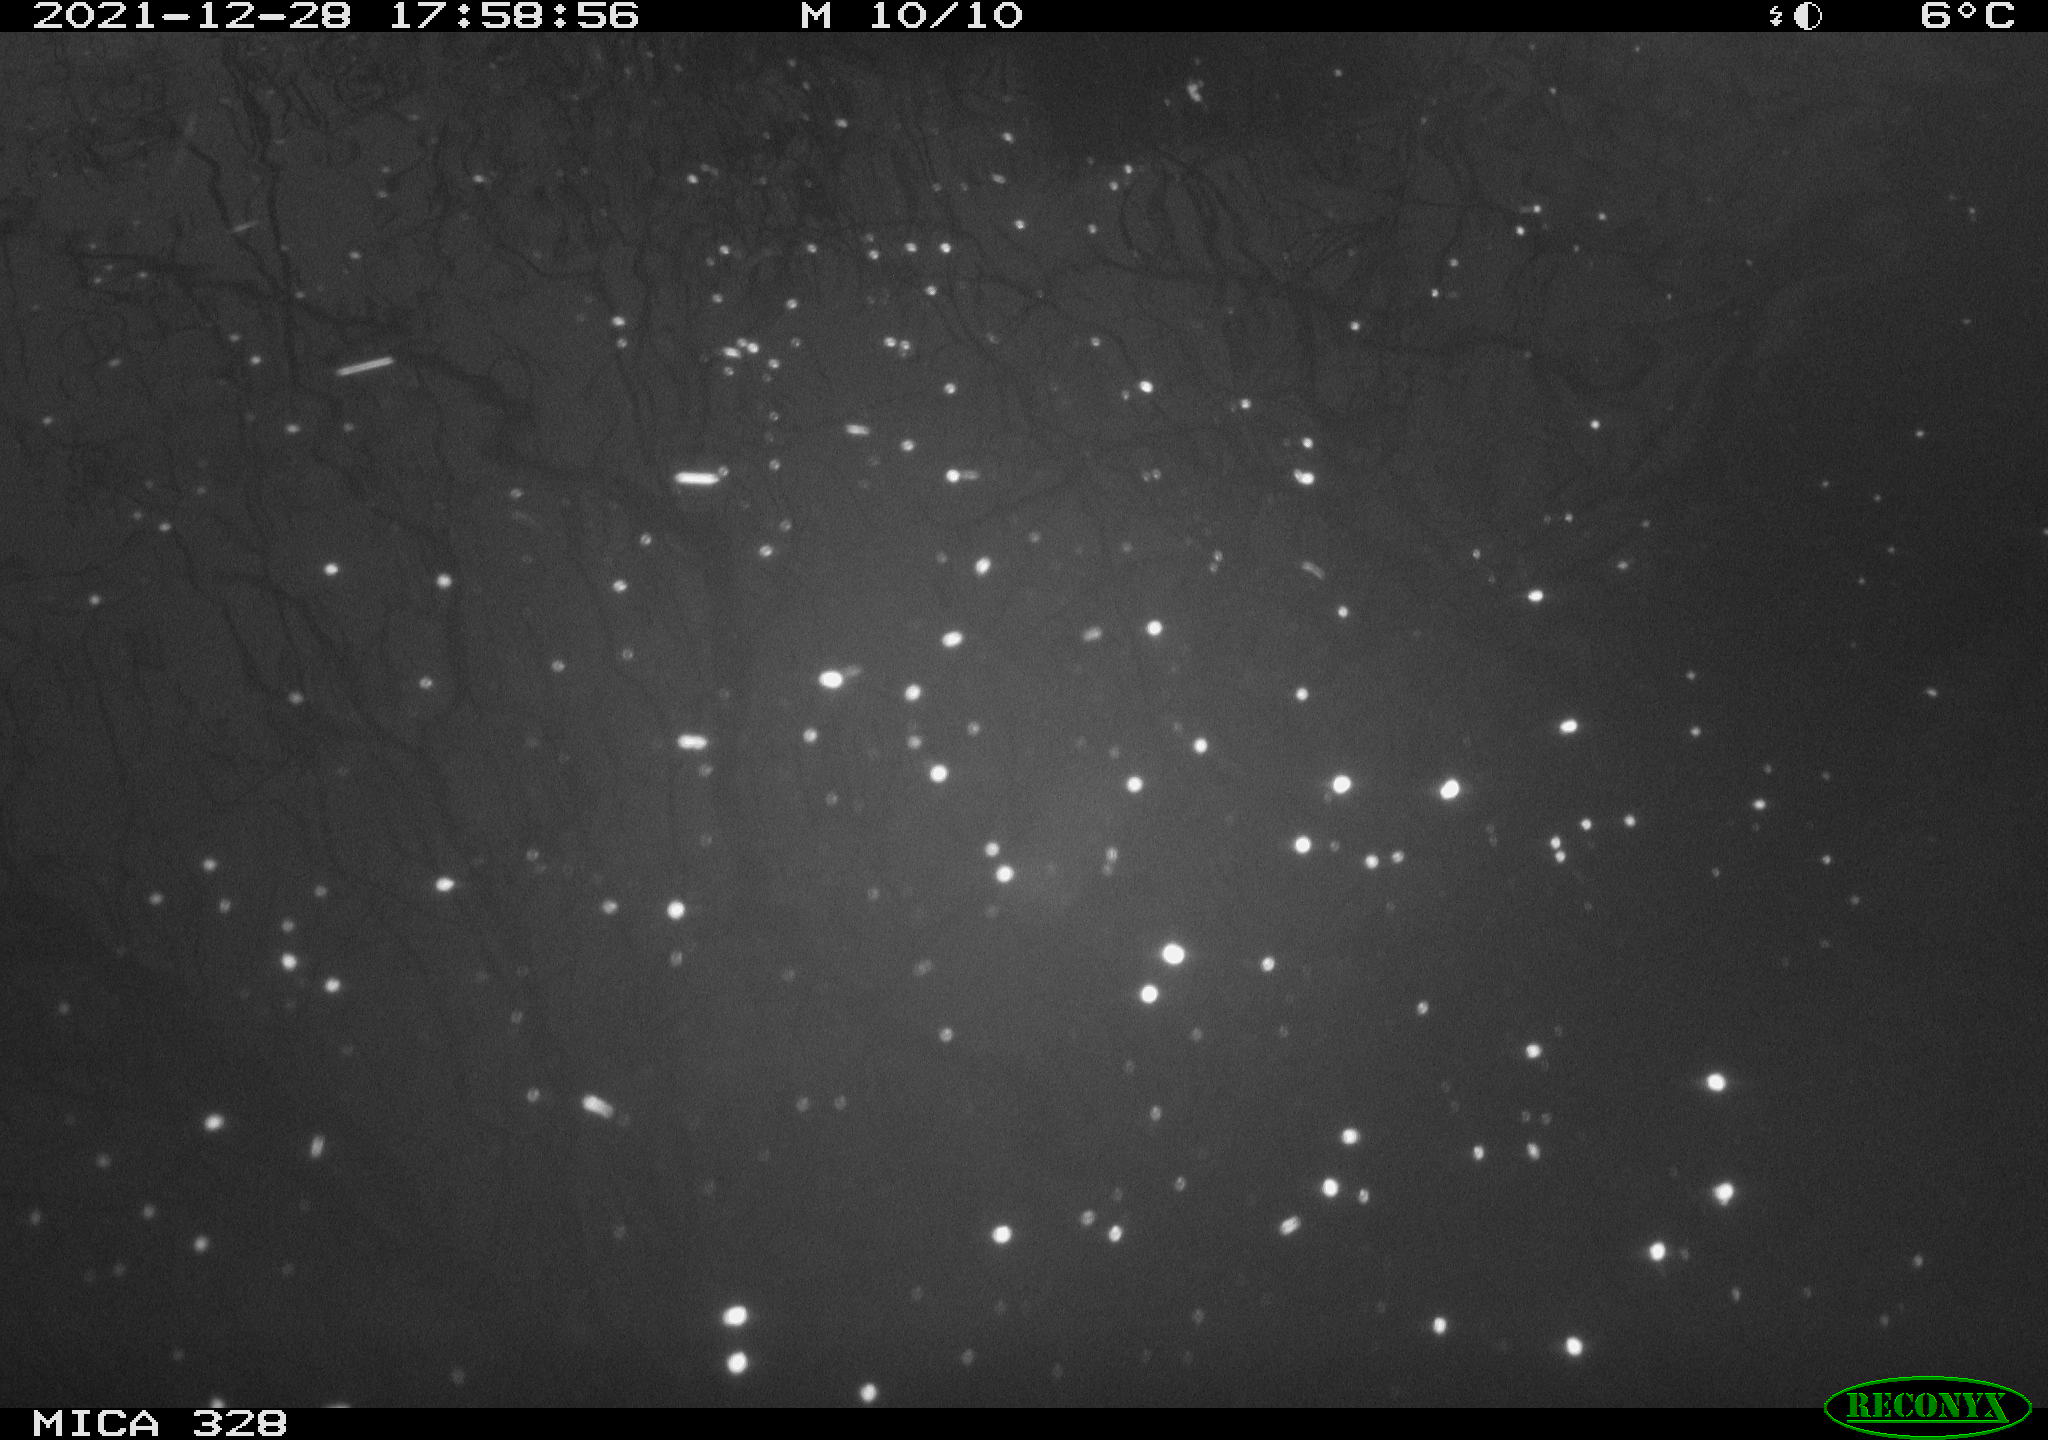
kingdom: Animalia
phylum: Chordata
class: Aves
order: Gruiformes
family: Rallidae
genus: Gallinula
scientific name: Gallinula chloropus
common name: Common moorhen
